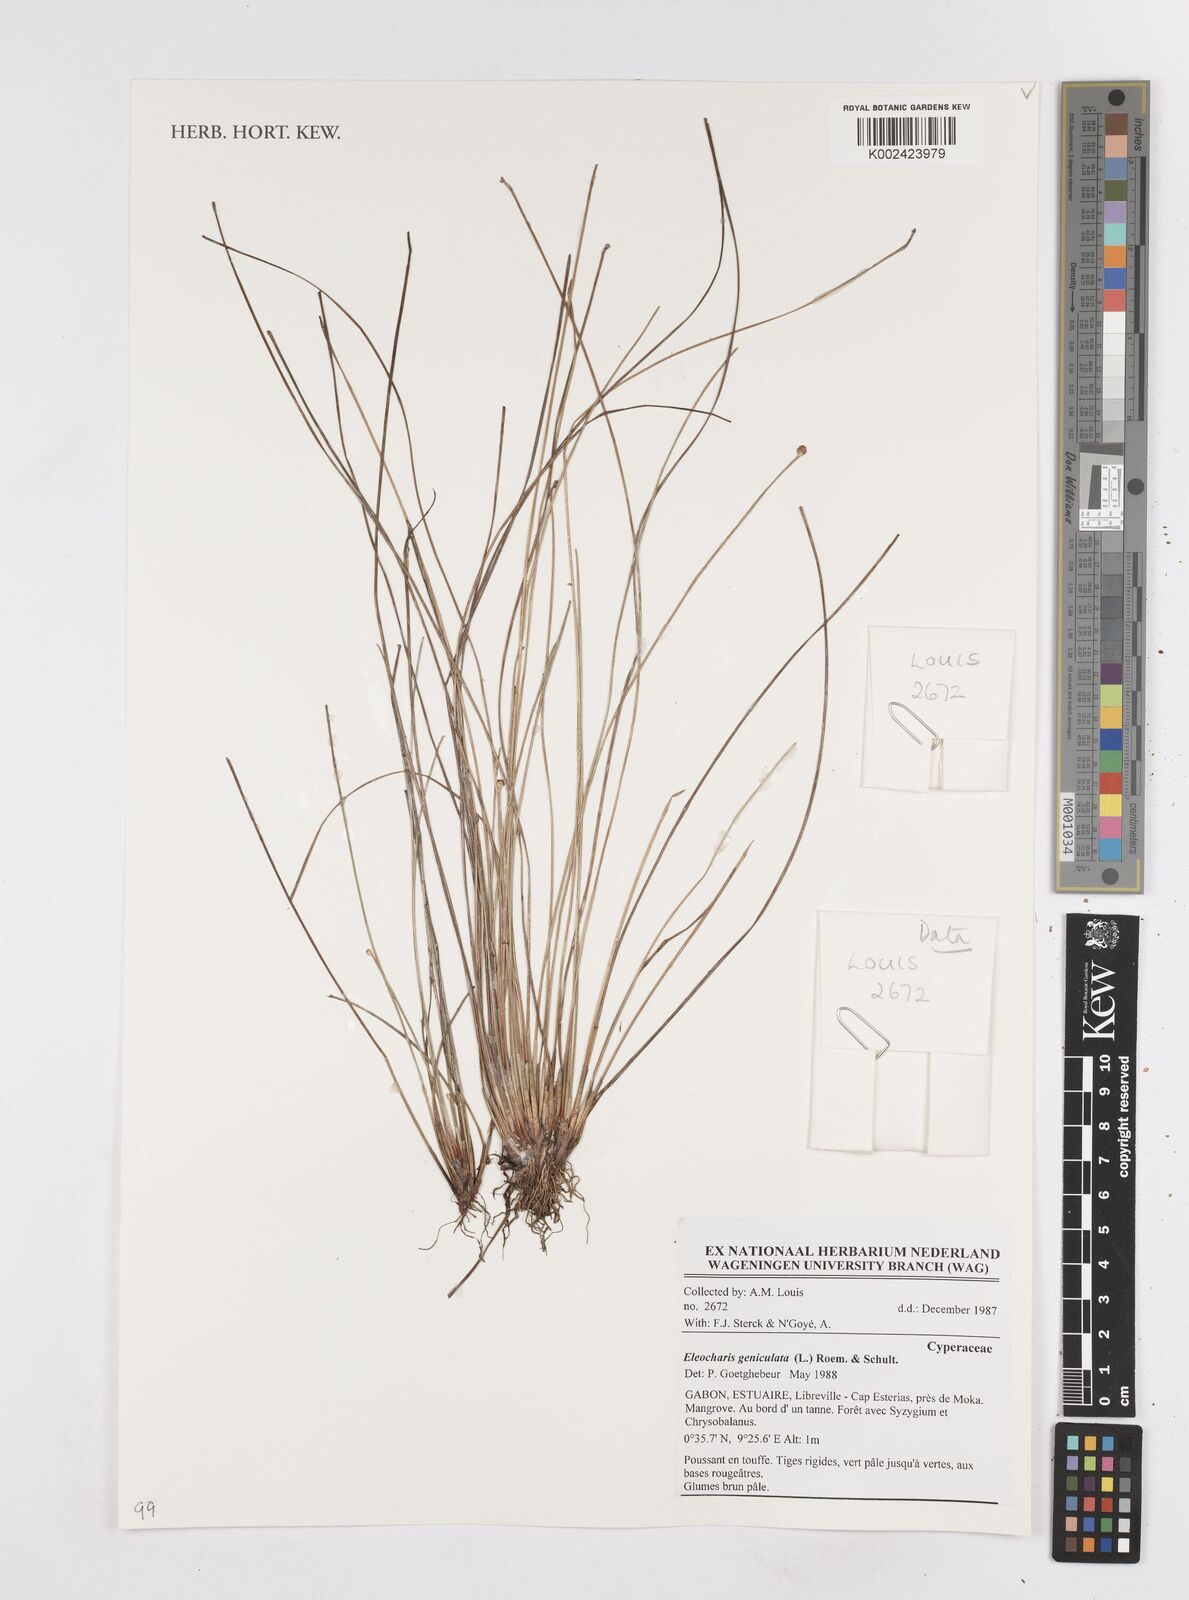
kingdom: Plantae
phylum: Tracheophyta
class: Liliopsida
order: Poales
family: Cyperaceae
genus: Eleocharis
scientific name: Eleocharis geniculata
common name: Canada spikesedge
